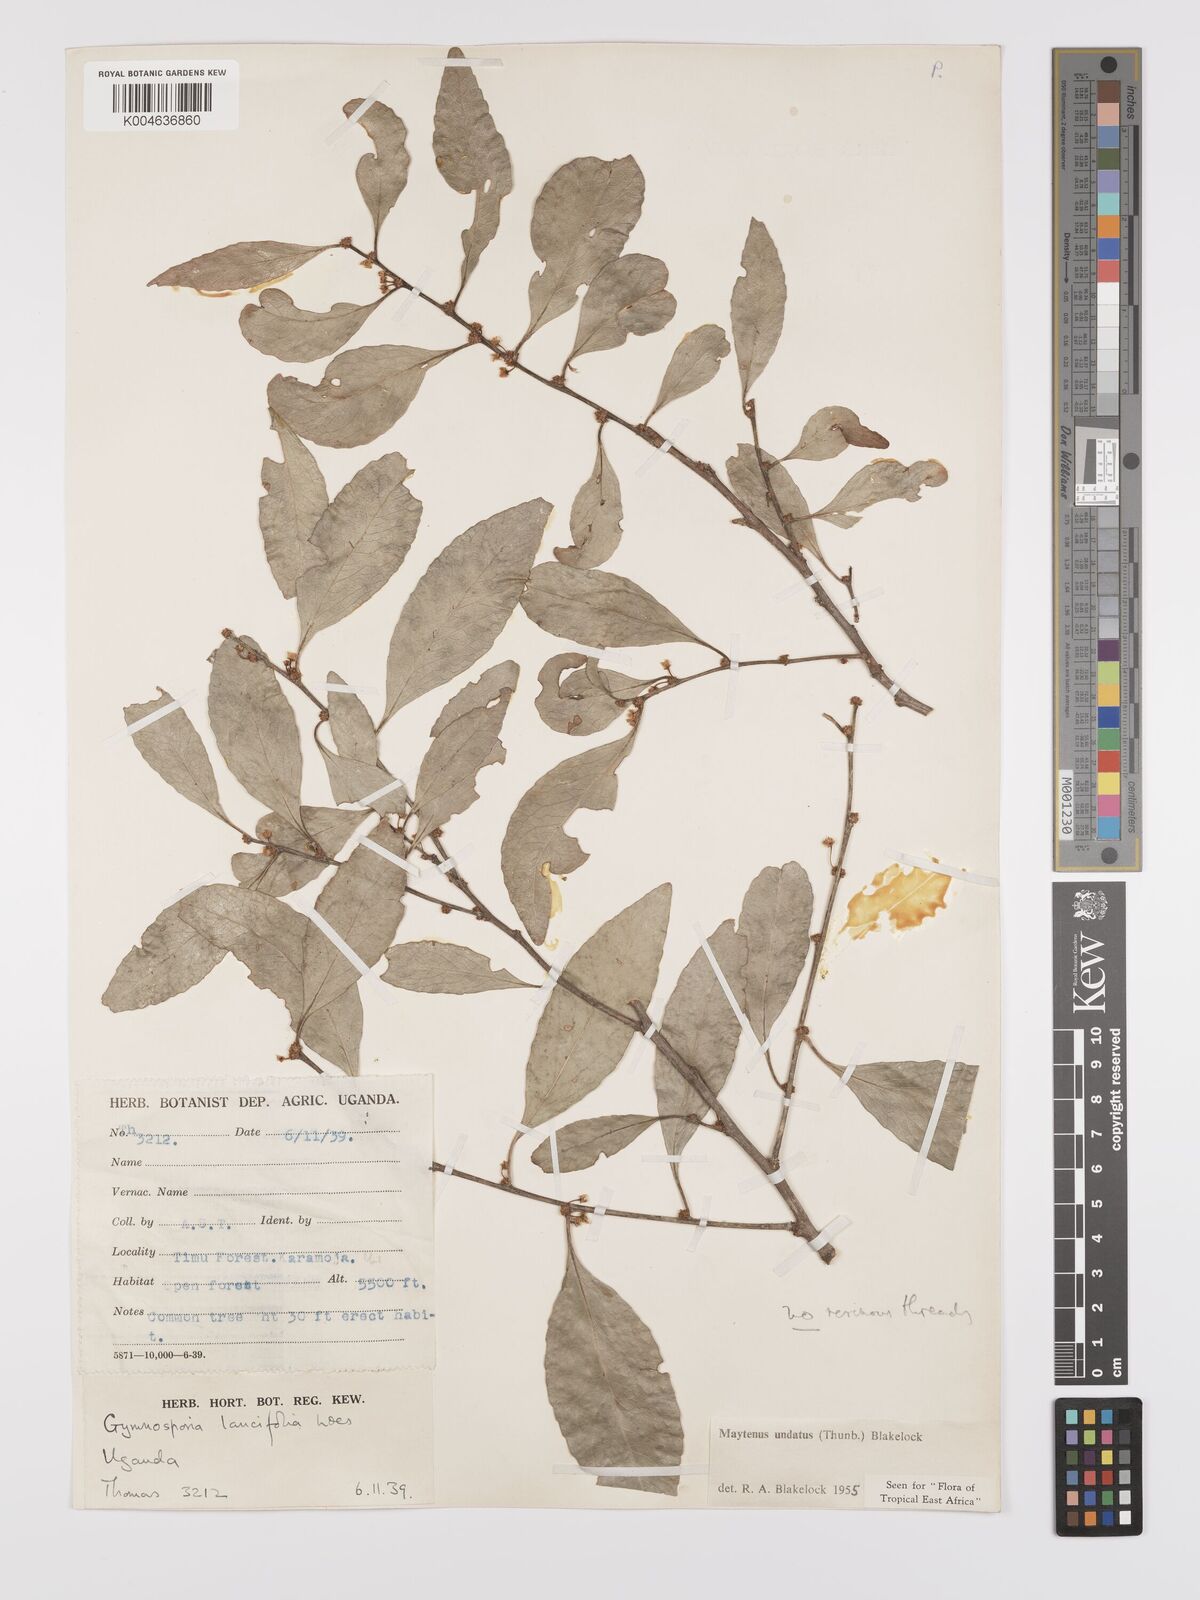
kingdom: Plantae
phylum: Tracheophyta
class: Magnoliopsida
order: Celastrales
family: Celastraceae
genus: Gymnosporia
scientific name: Gymnosporia undata
